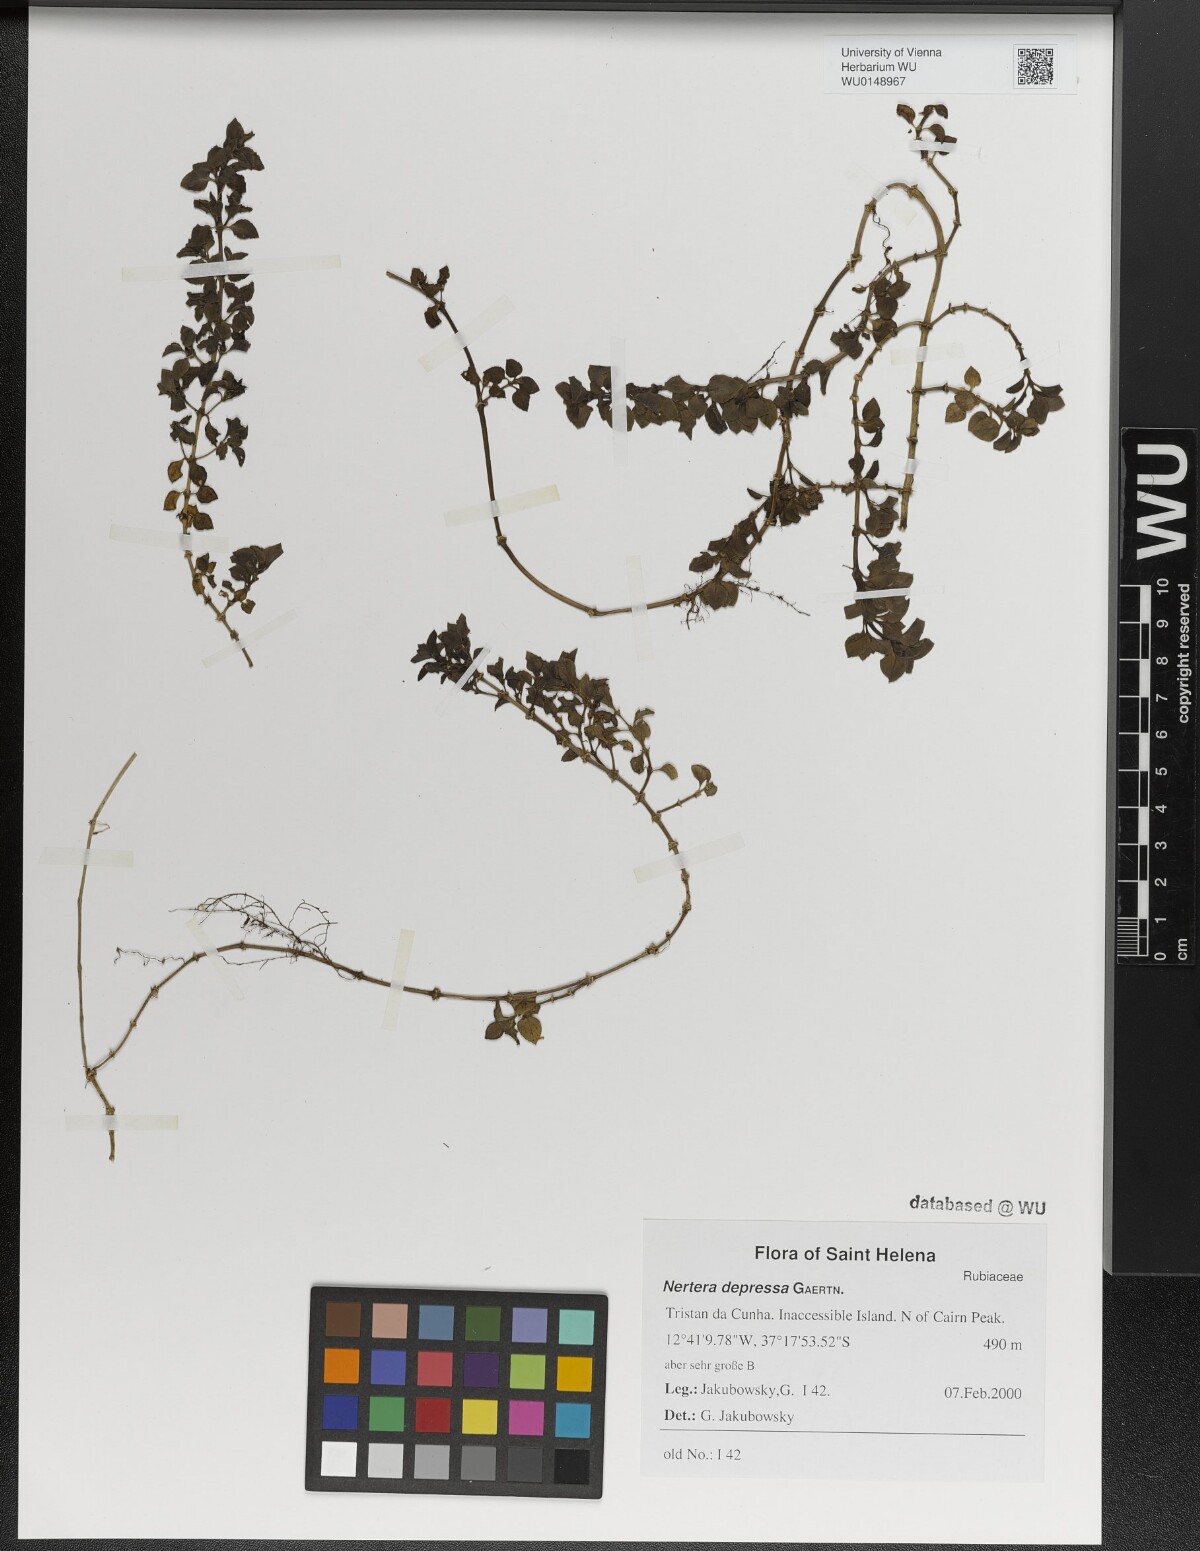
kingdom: Plantae
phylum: Tracheophyta
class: Magnoliopsida
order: Gentianales
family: Rubiaceae
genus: Nertera
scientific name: Nertera granadensis
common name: Beadplant
